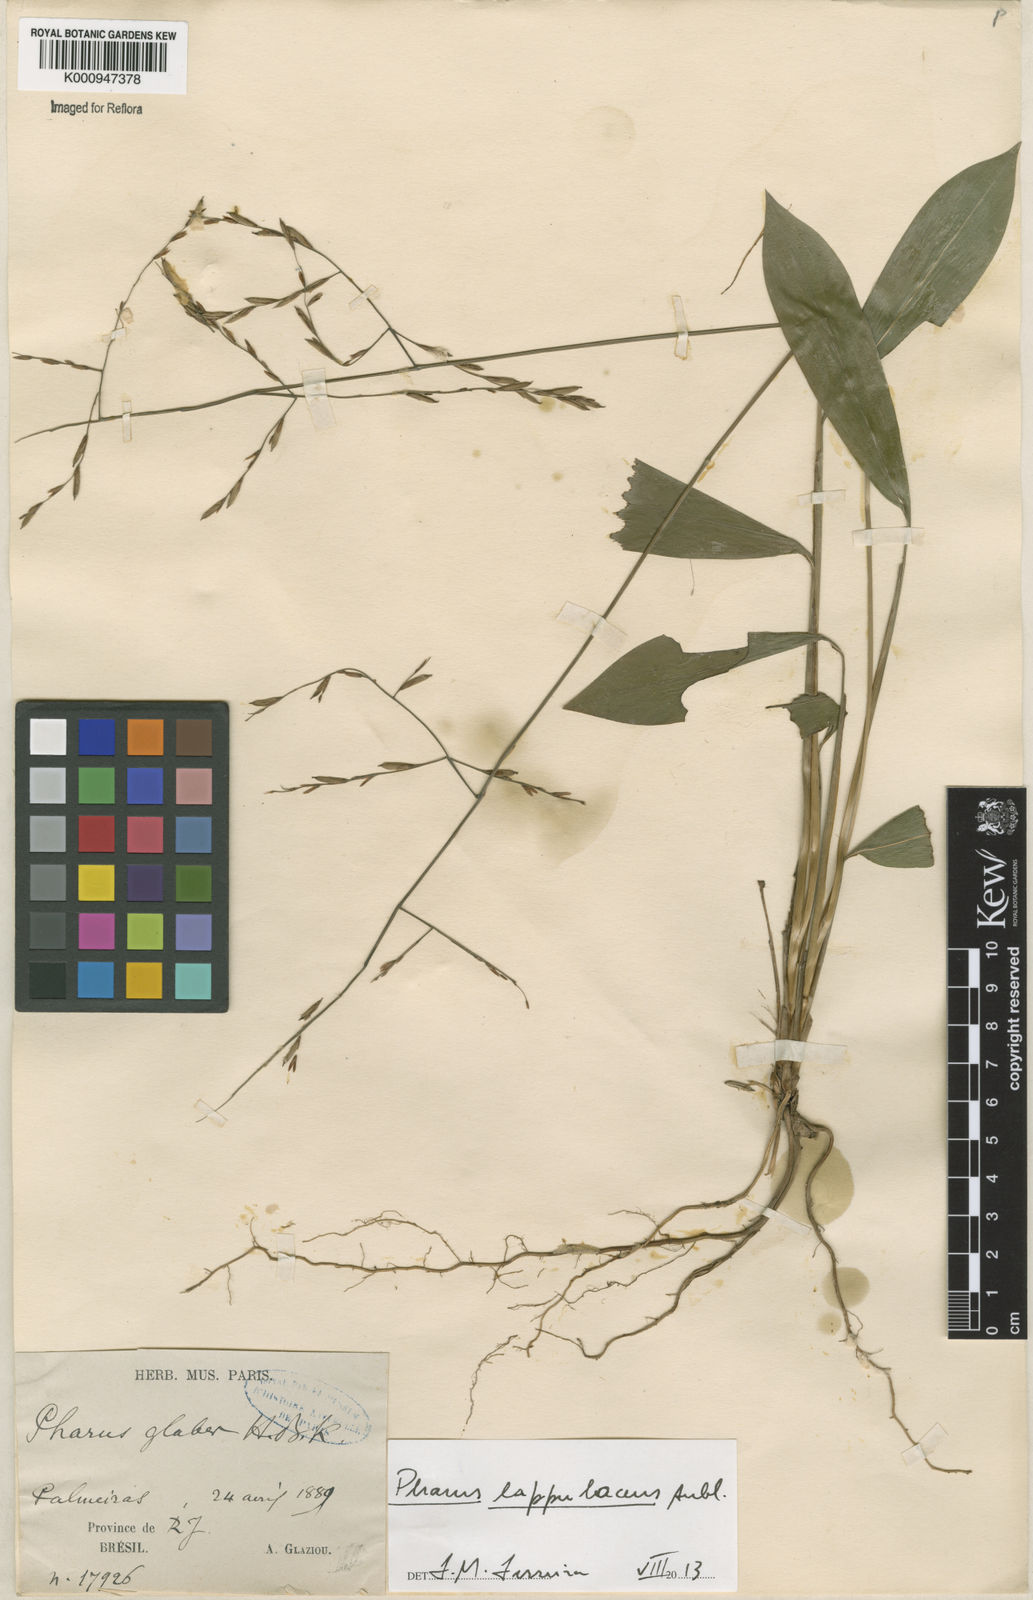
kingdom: Plantae
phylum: Tracheophyta
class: Liliopsida
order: Poales
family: Poaceae
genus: Pharus
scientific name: Pharus lappulaceus
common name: Creeping leafstalk grass
